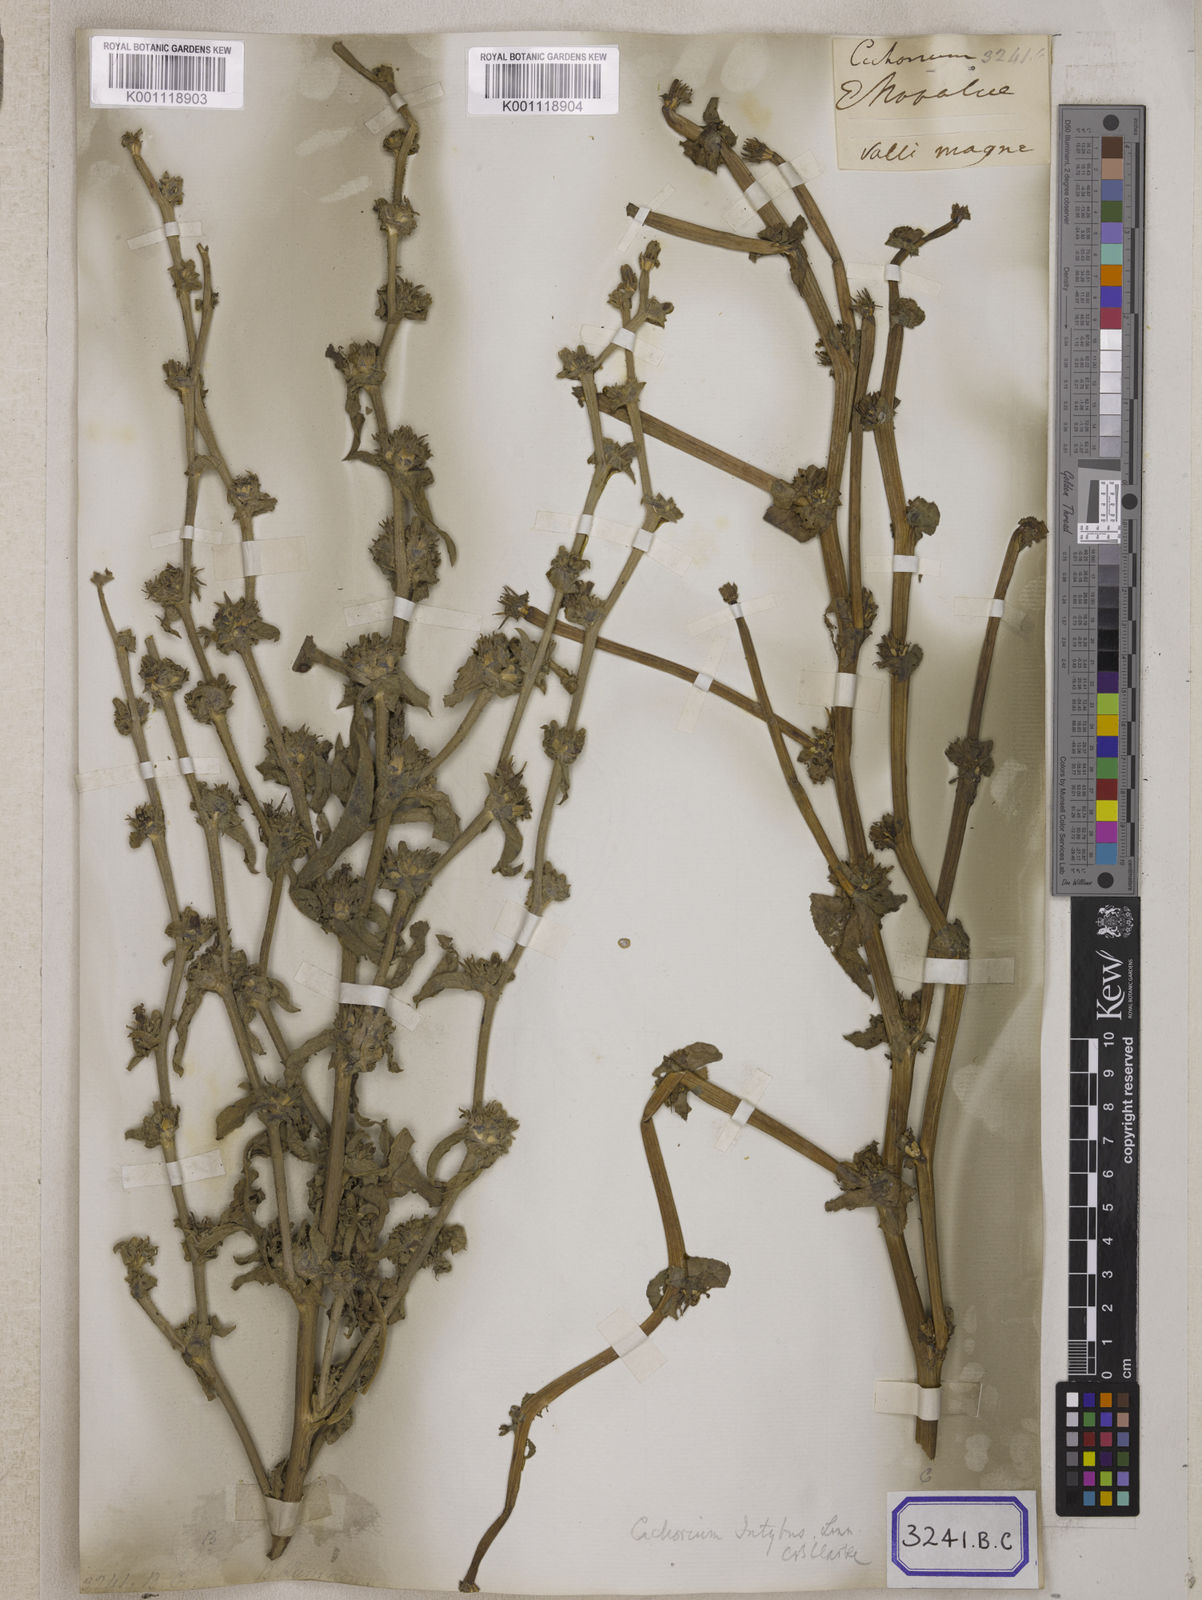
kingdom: Plantae
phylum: Tracheophyta
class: Magnoliopsida
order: Asterales
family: Asteraceae
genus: Cichorium
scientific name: Cichorium intybus
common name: Chicory
